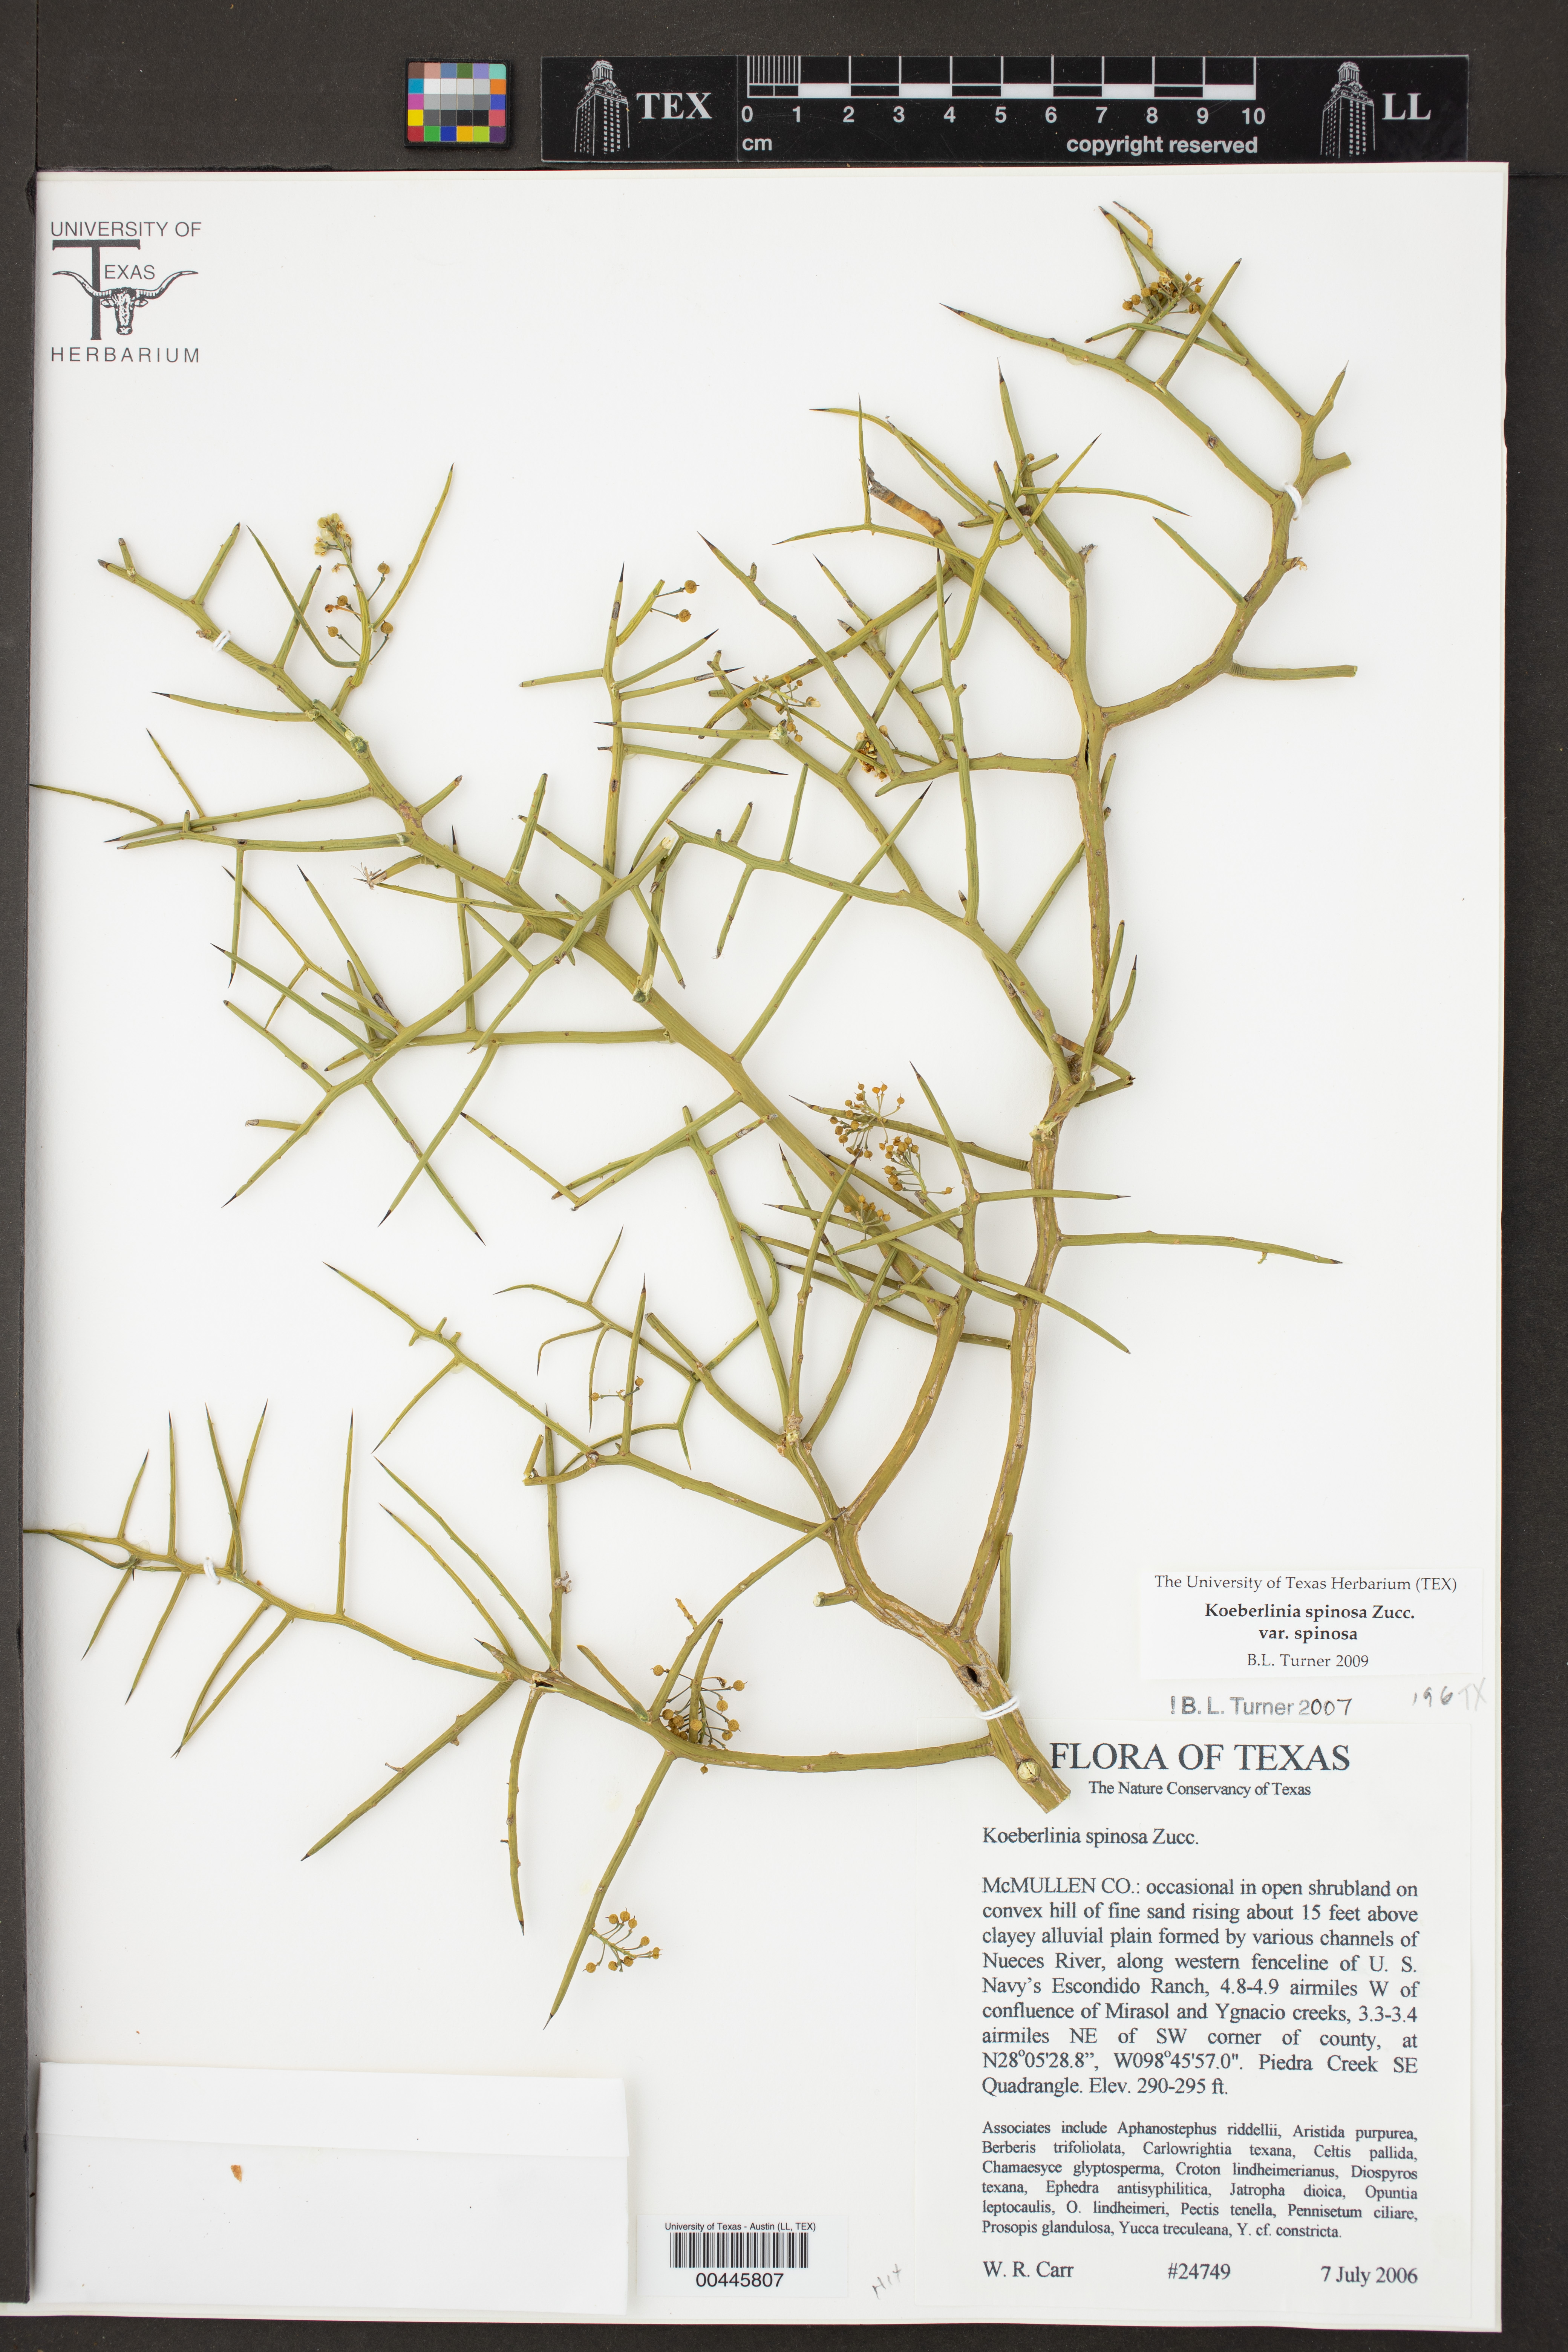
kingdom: Plantae
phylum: Tracheophyta
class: Magnoliopsida
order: Brassicales
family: Koeberliniaceae
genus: Koeberlinia
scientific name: Koeberlinia spinosa
